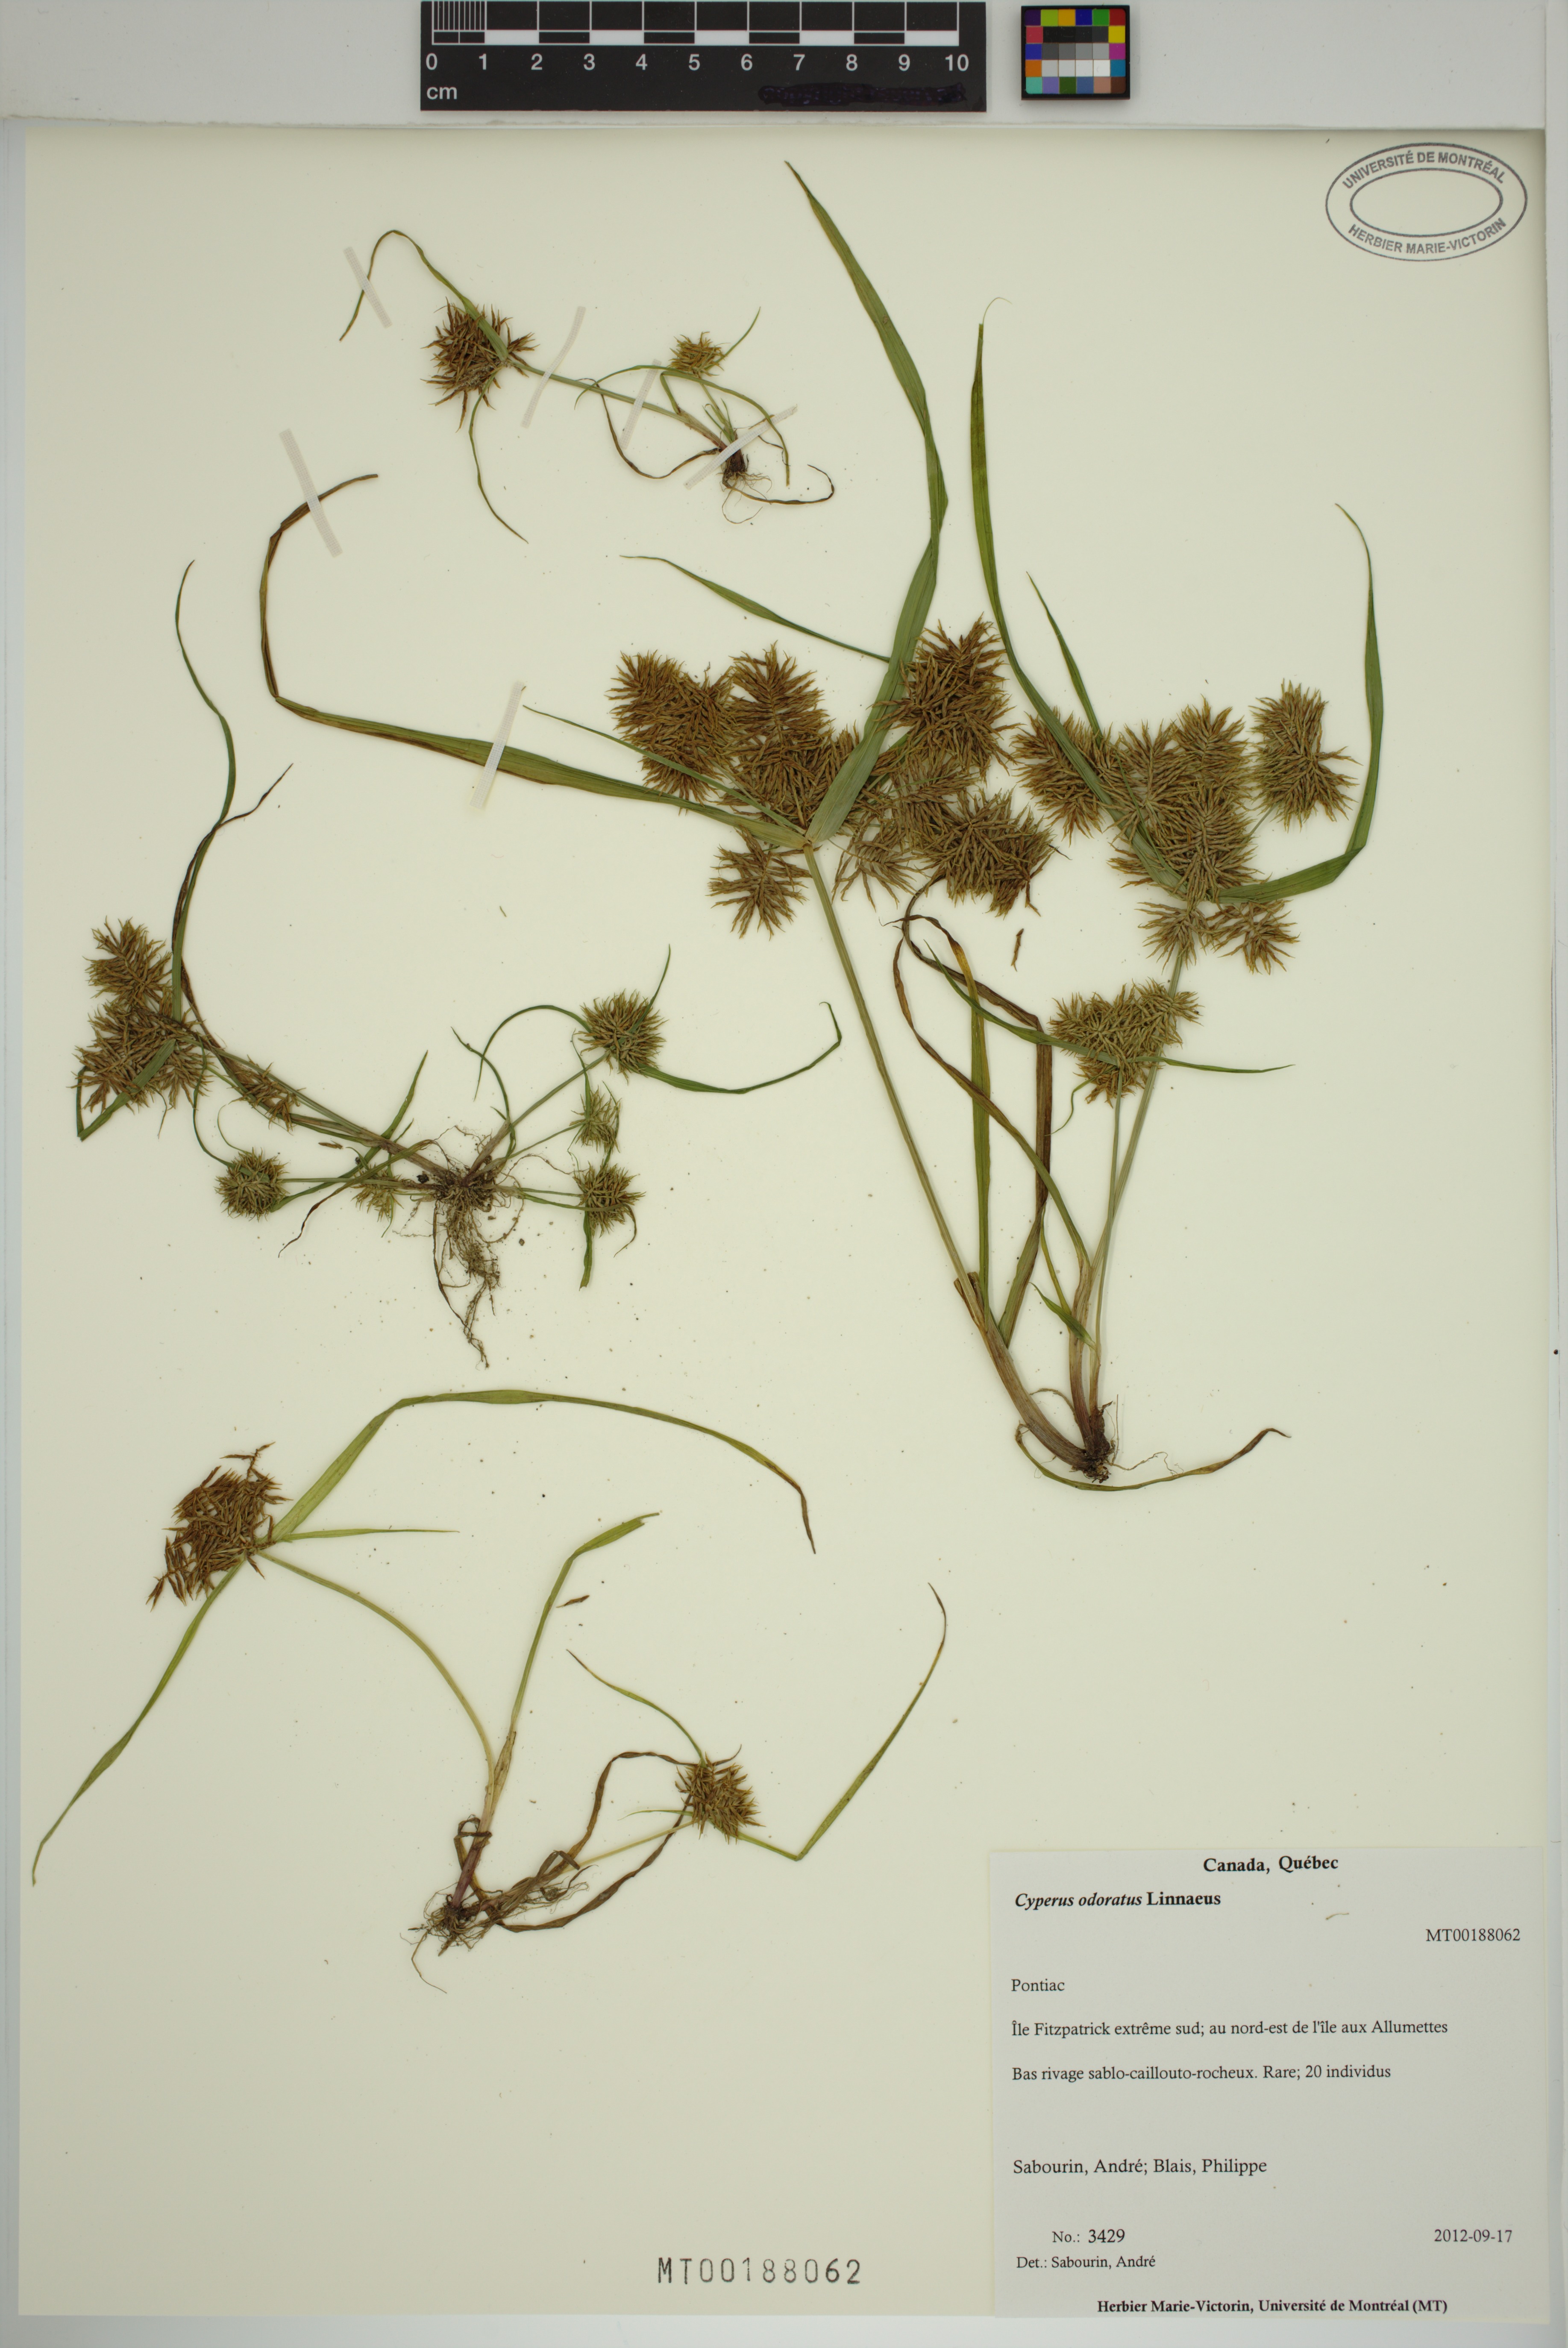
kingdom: Plantae
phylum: Tracheophyta
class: Liliopsida
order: Poales
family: Cyperaceae
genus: Cyperus
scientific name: Cyperus odoratus
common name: Fragrant flatsedge
